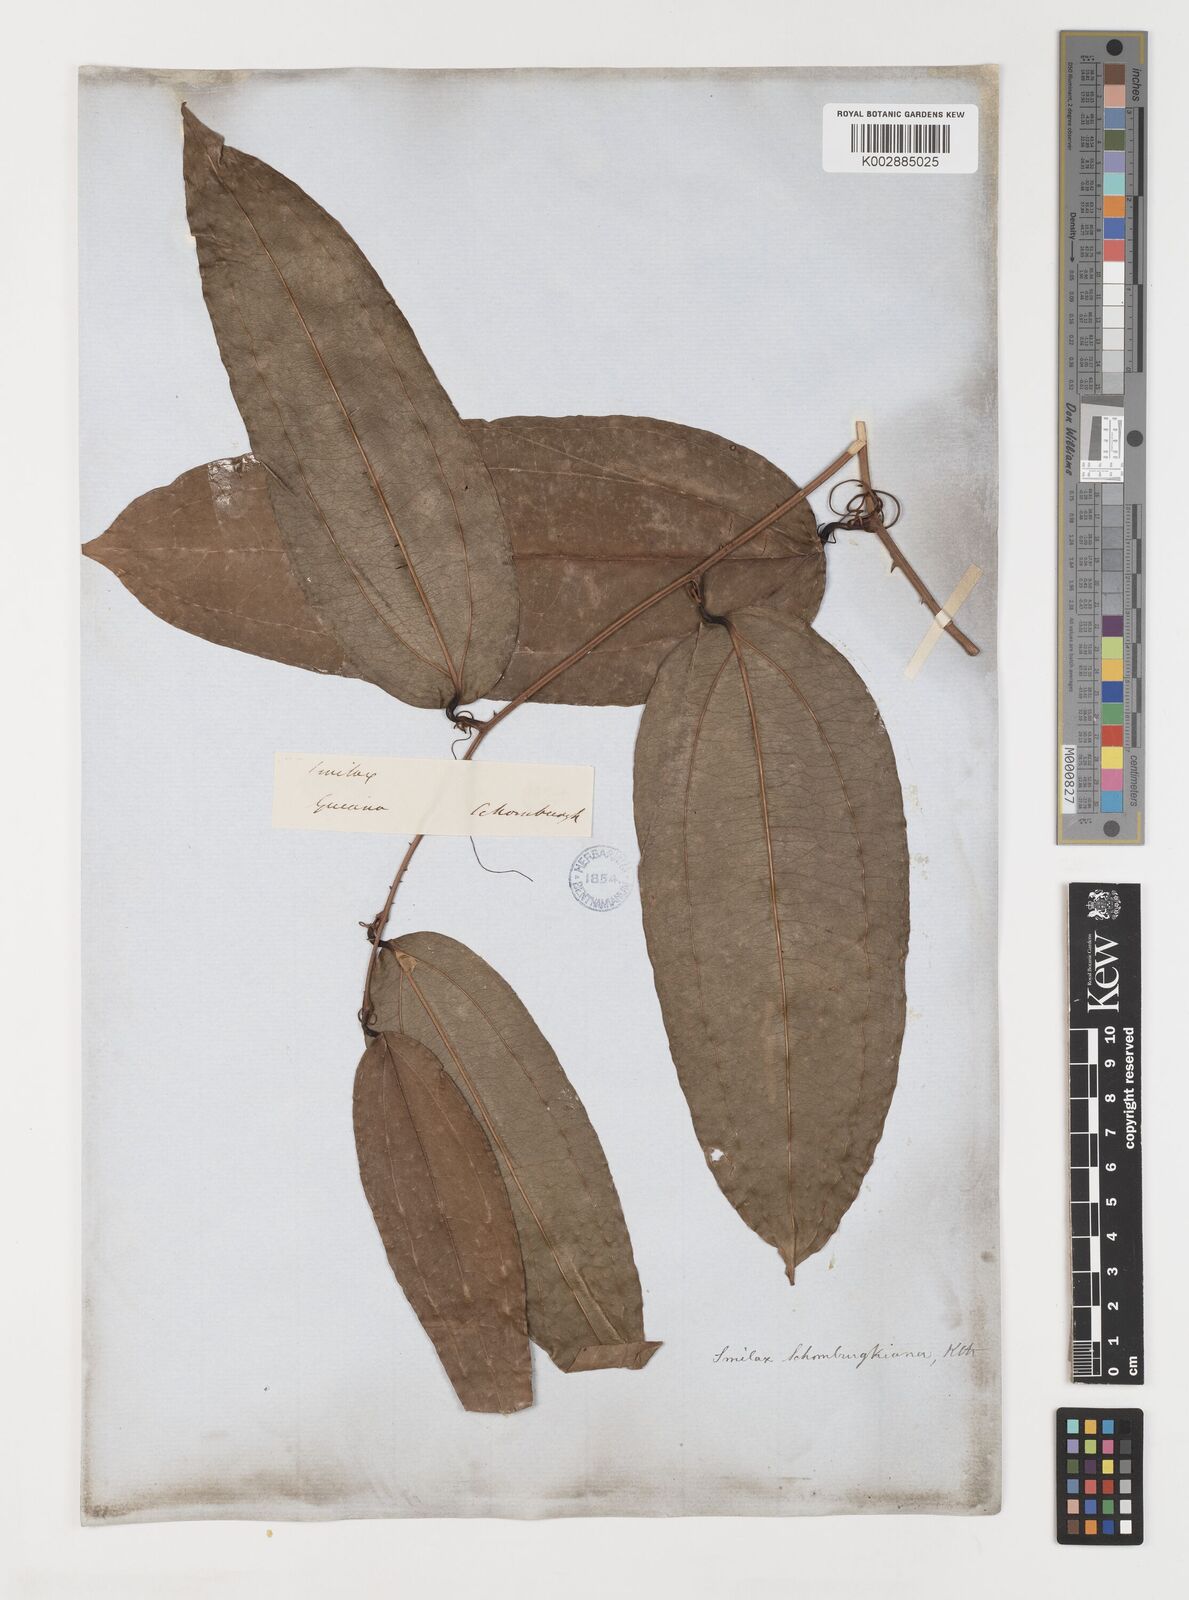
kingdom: Plantae
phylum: Tracheophyta
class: Liliopsida
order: Liliales
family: Smilacaceae
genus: Smilax
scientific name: Smilax schomburgkiana
